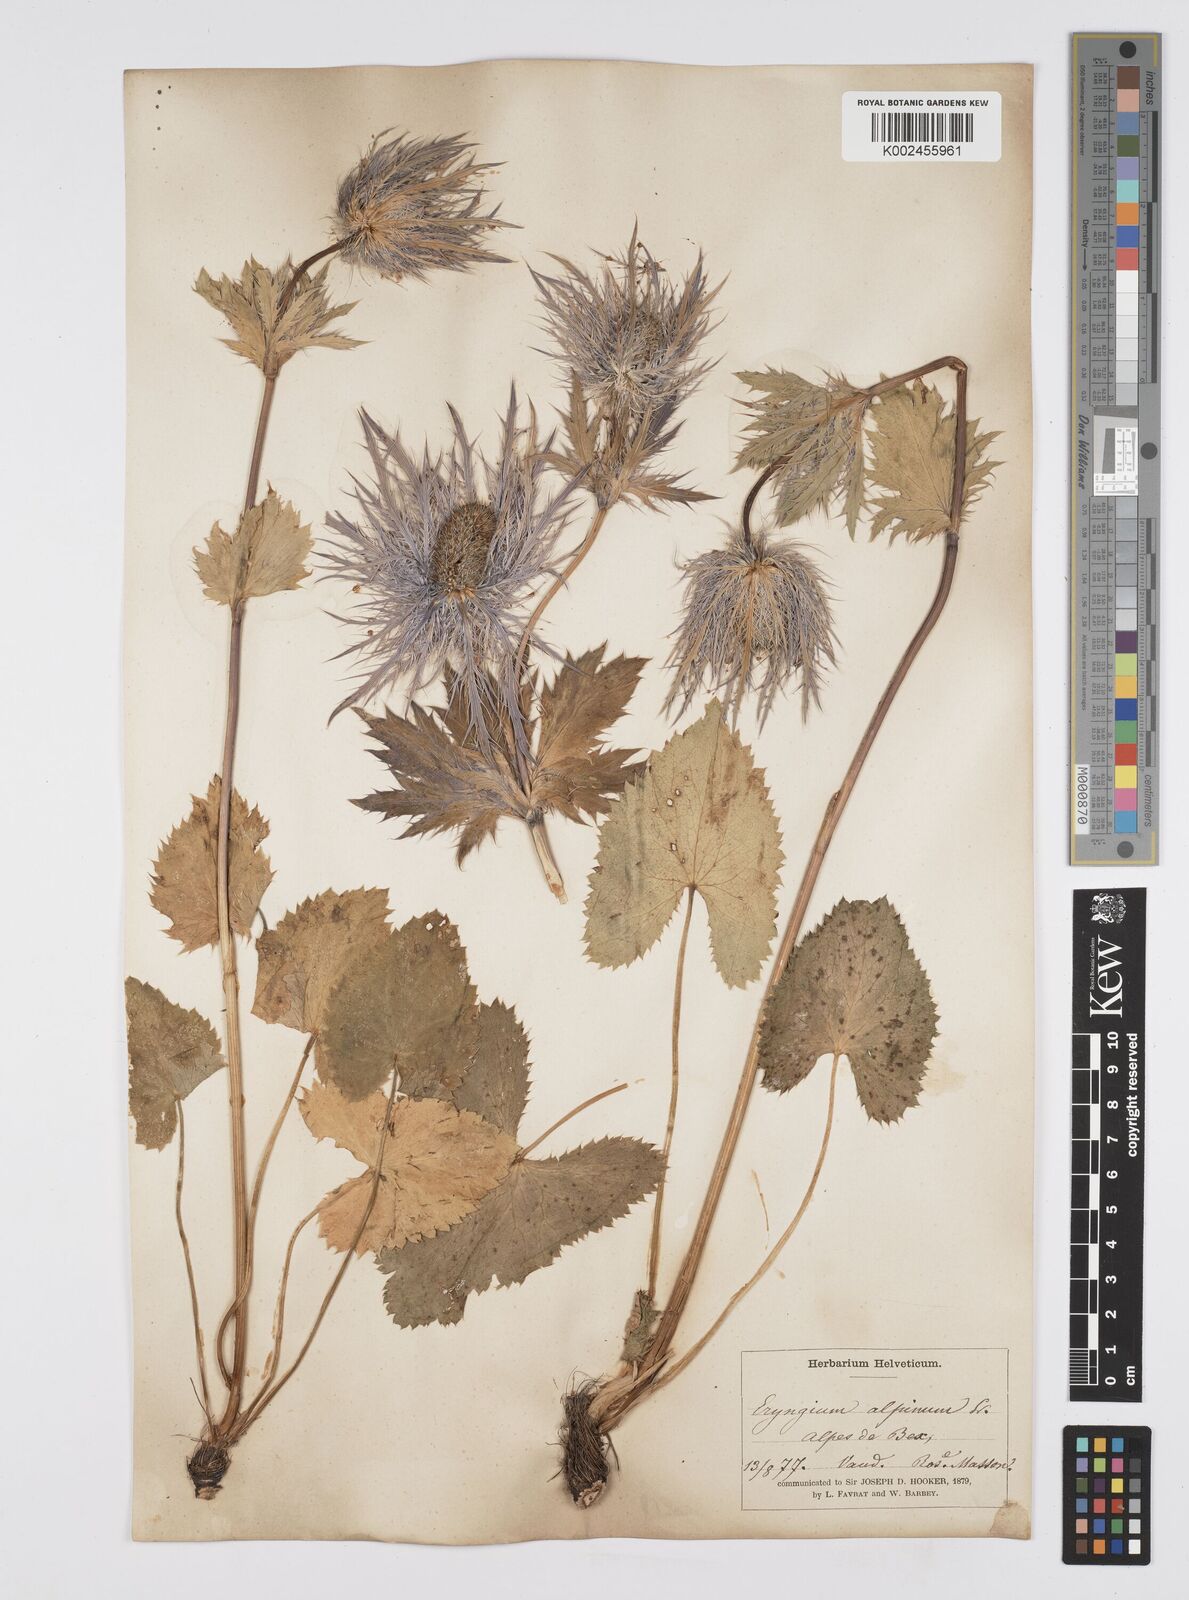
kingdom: Plantae
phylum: Tracheophyta
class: Magnoliopsida
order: Apiales
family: Apiaceae
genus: Eryngium
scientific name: Eryngium alpinum
